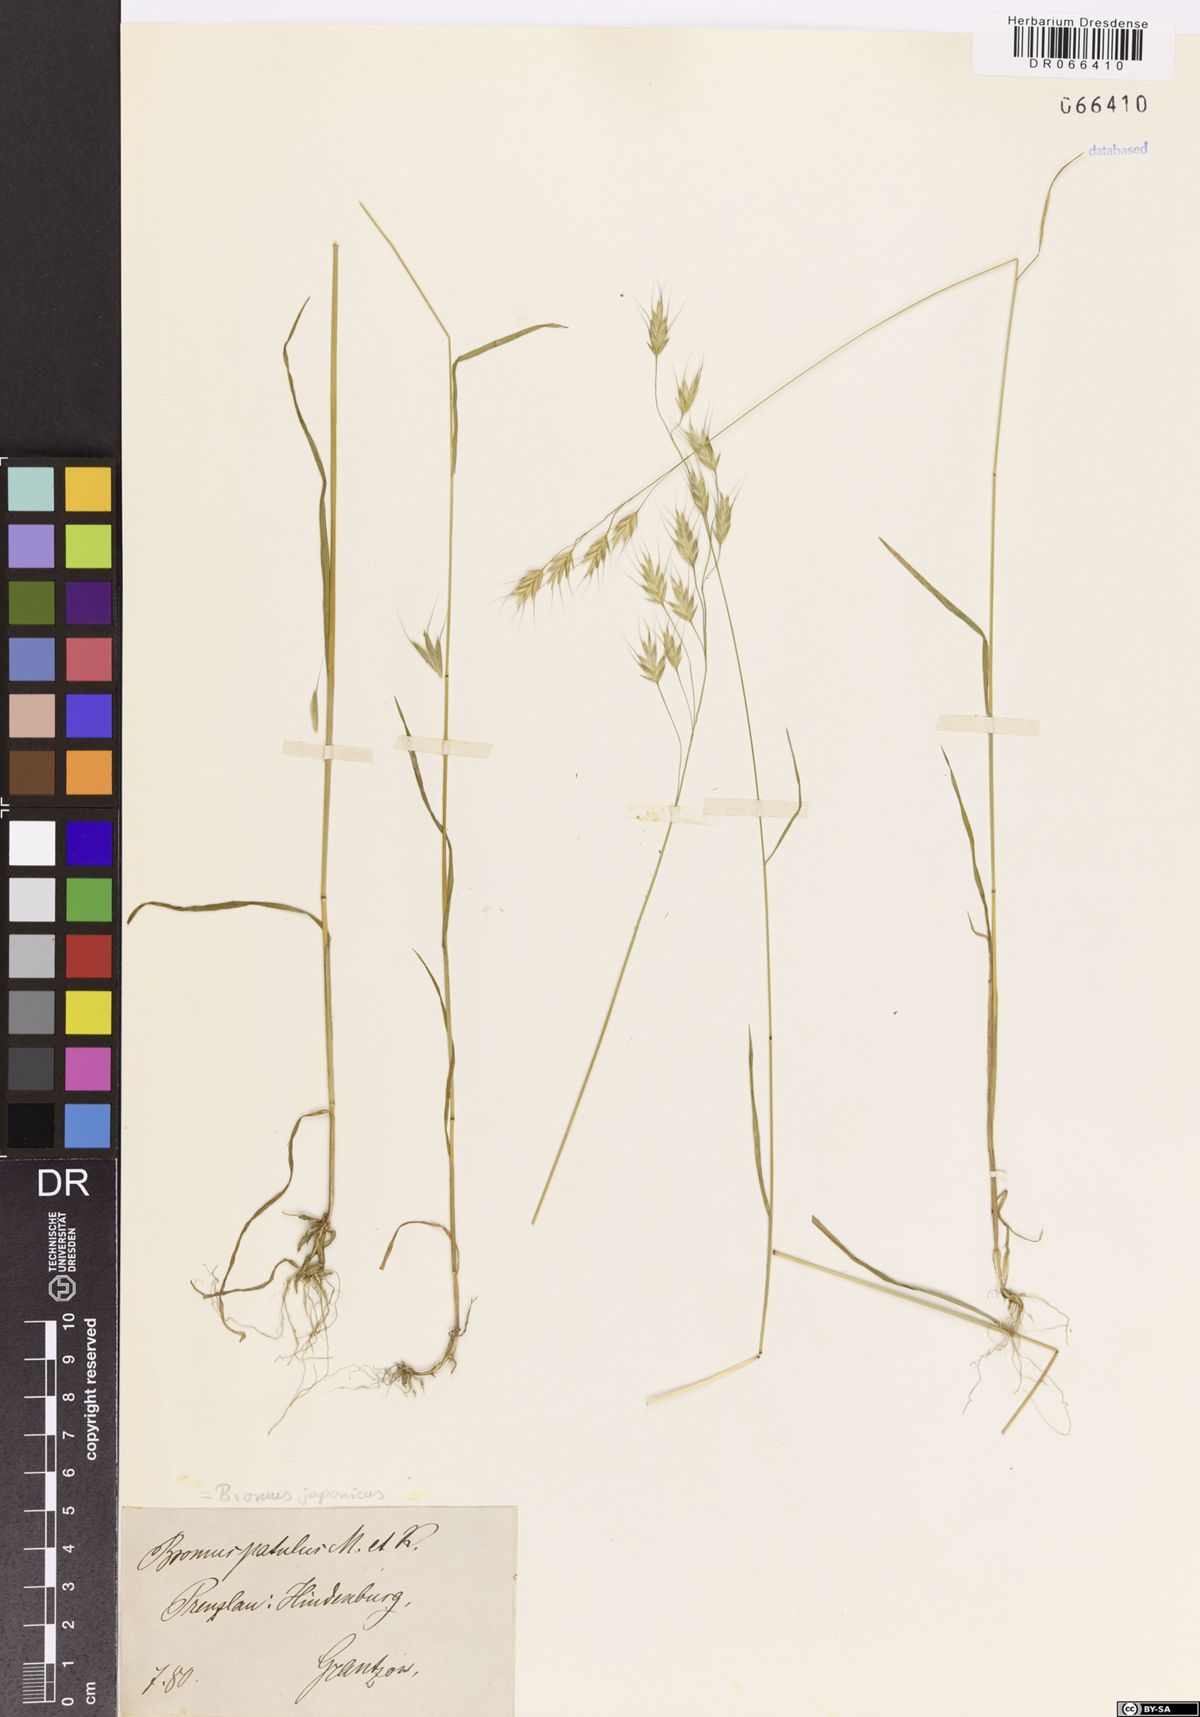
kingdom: Plantae
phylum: Tracheophyta
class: Liliopsida
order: Poales
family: Poaceae
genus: Bromus
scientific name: Bromus japonicus
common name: Japanese brome
